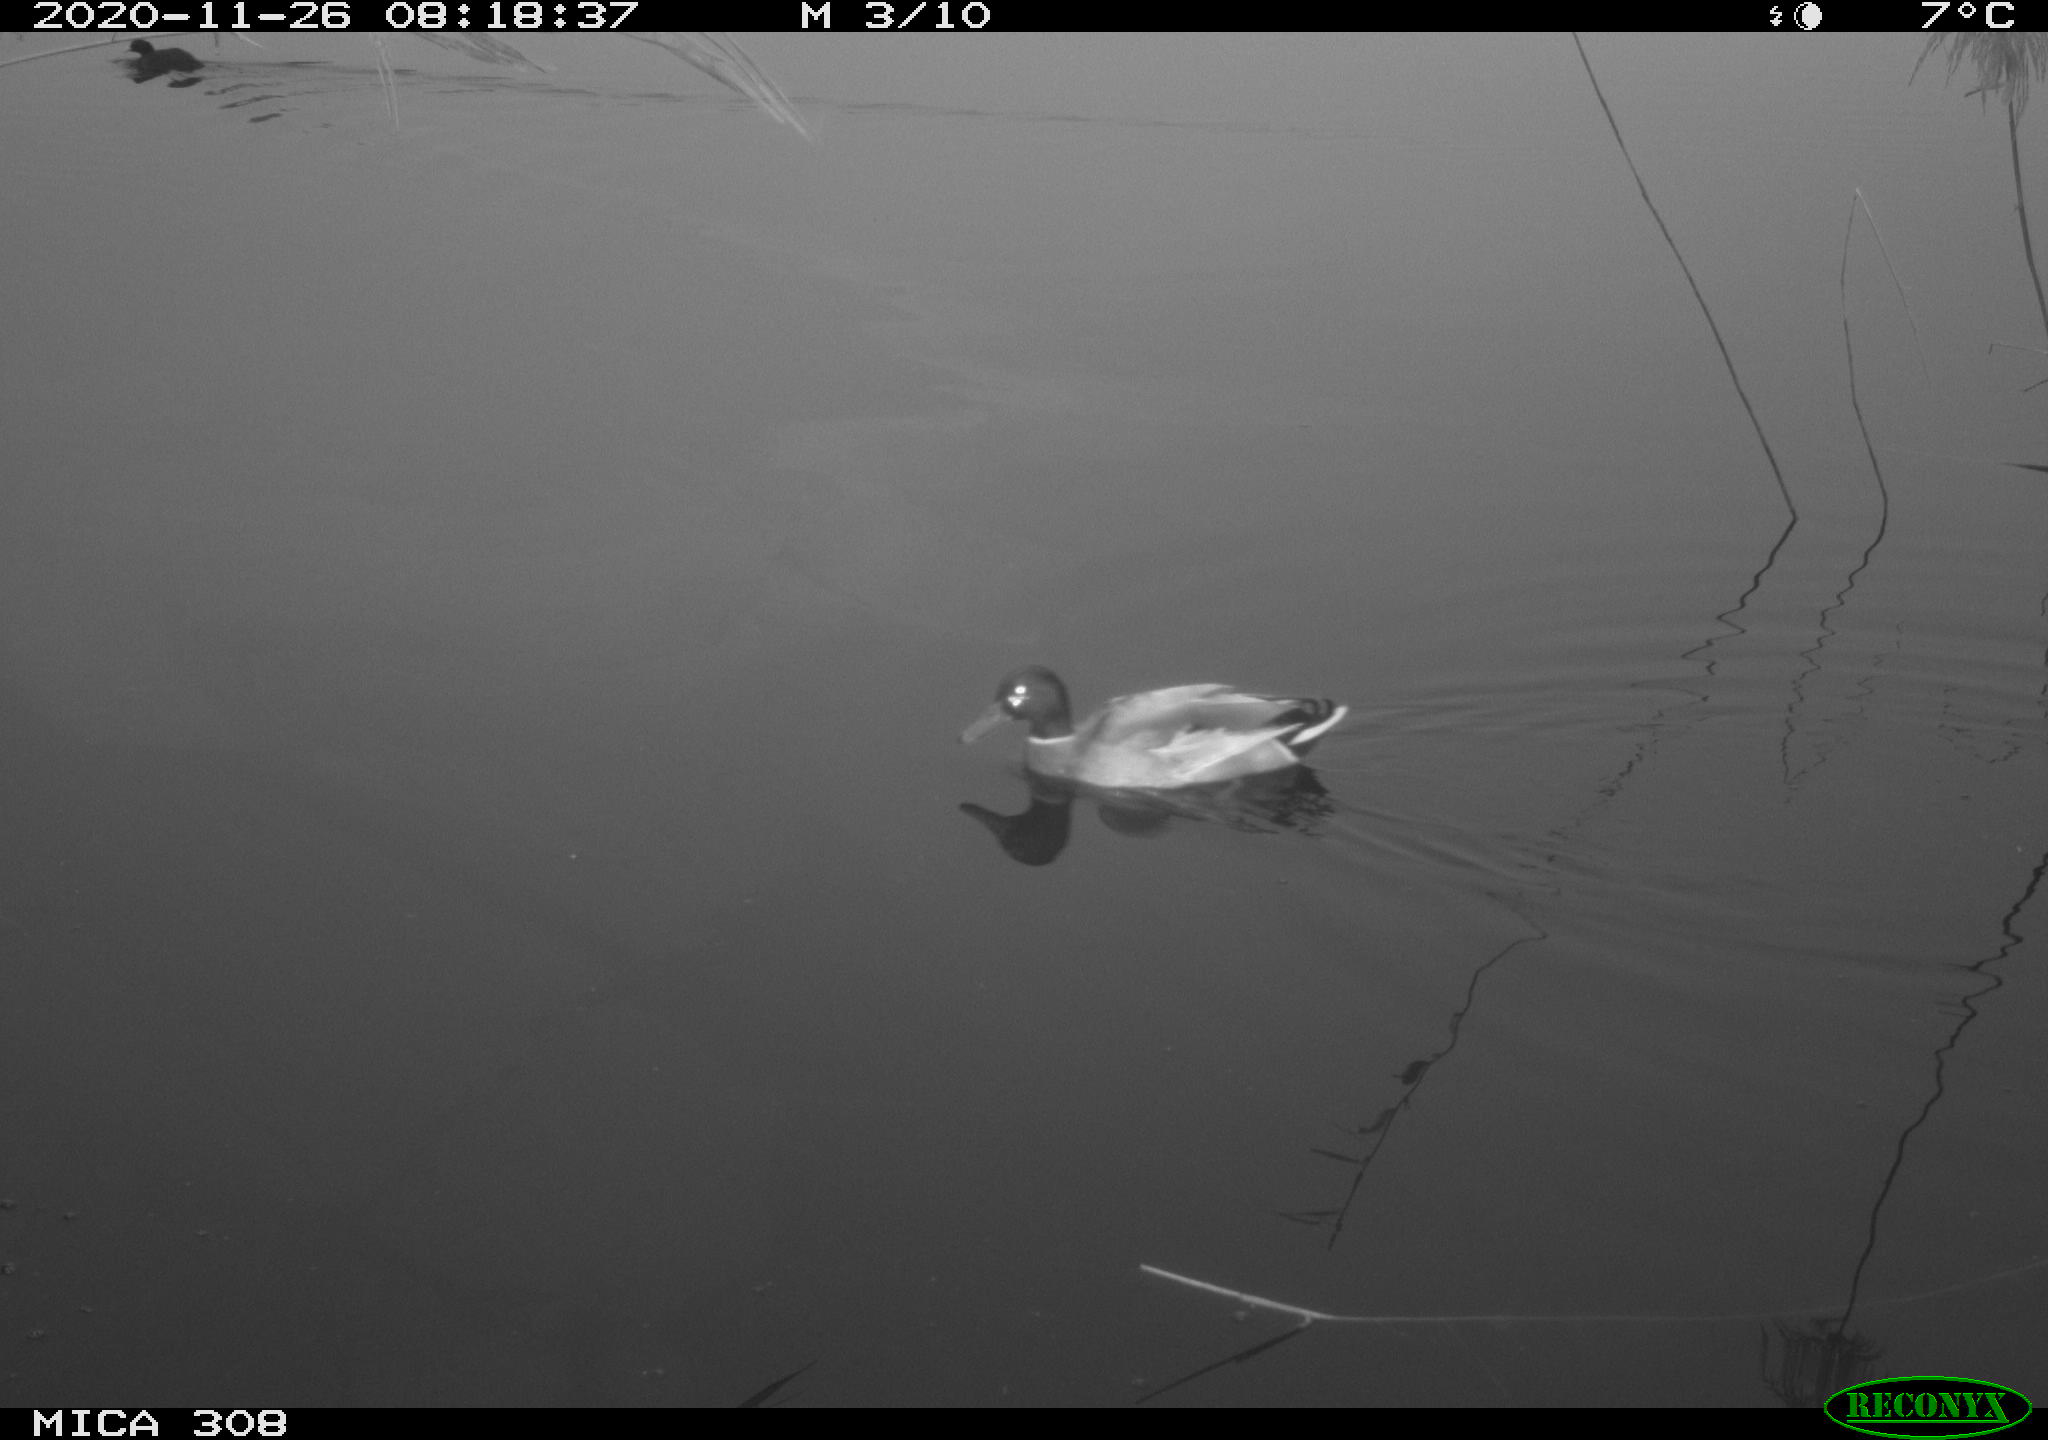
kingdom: Animalia
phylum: Chordata
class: Aves
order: Anseriformes
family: Anatidae
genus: Anas
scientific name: Anas platyrhynchos
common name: Mallard
